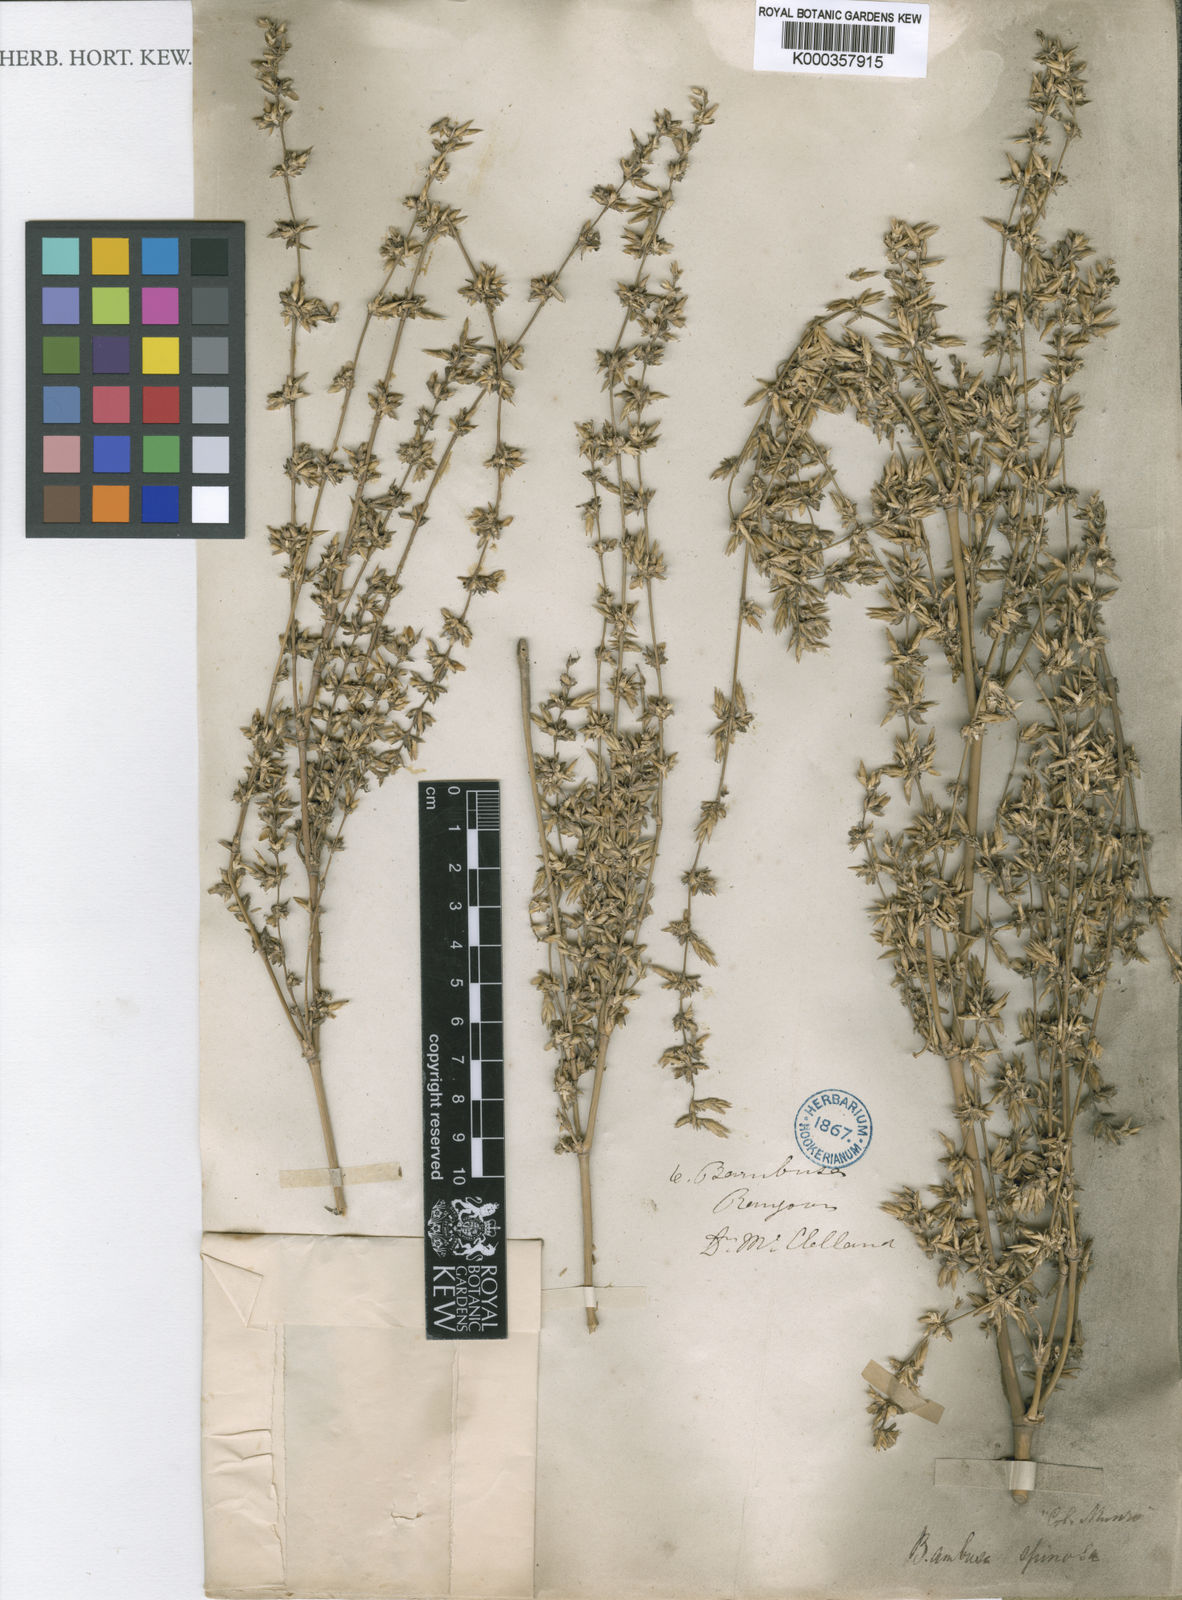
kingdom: Plantae
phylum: Tracheophyta
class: Liliopsida
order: Poales
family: Poaceae
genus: Bambusa
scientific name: Bambusa
